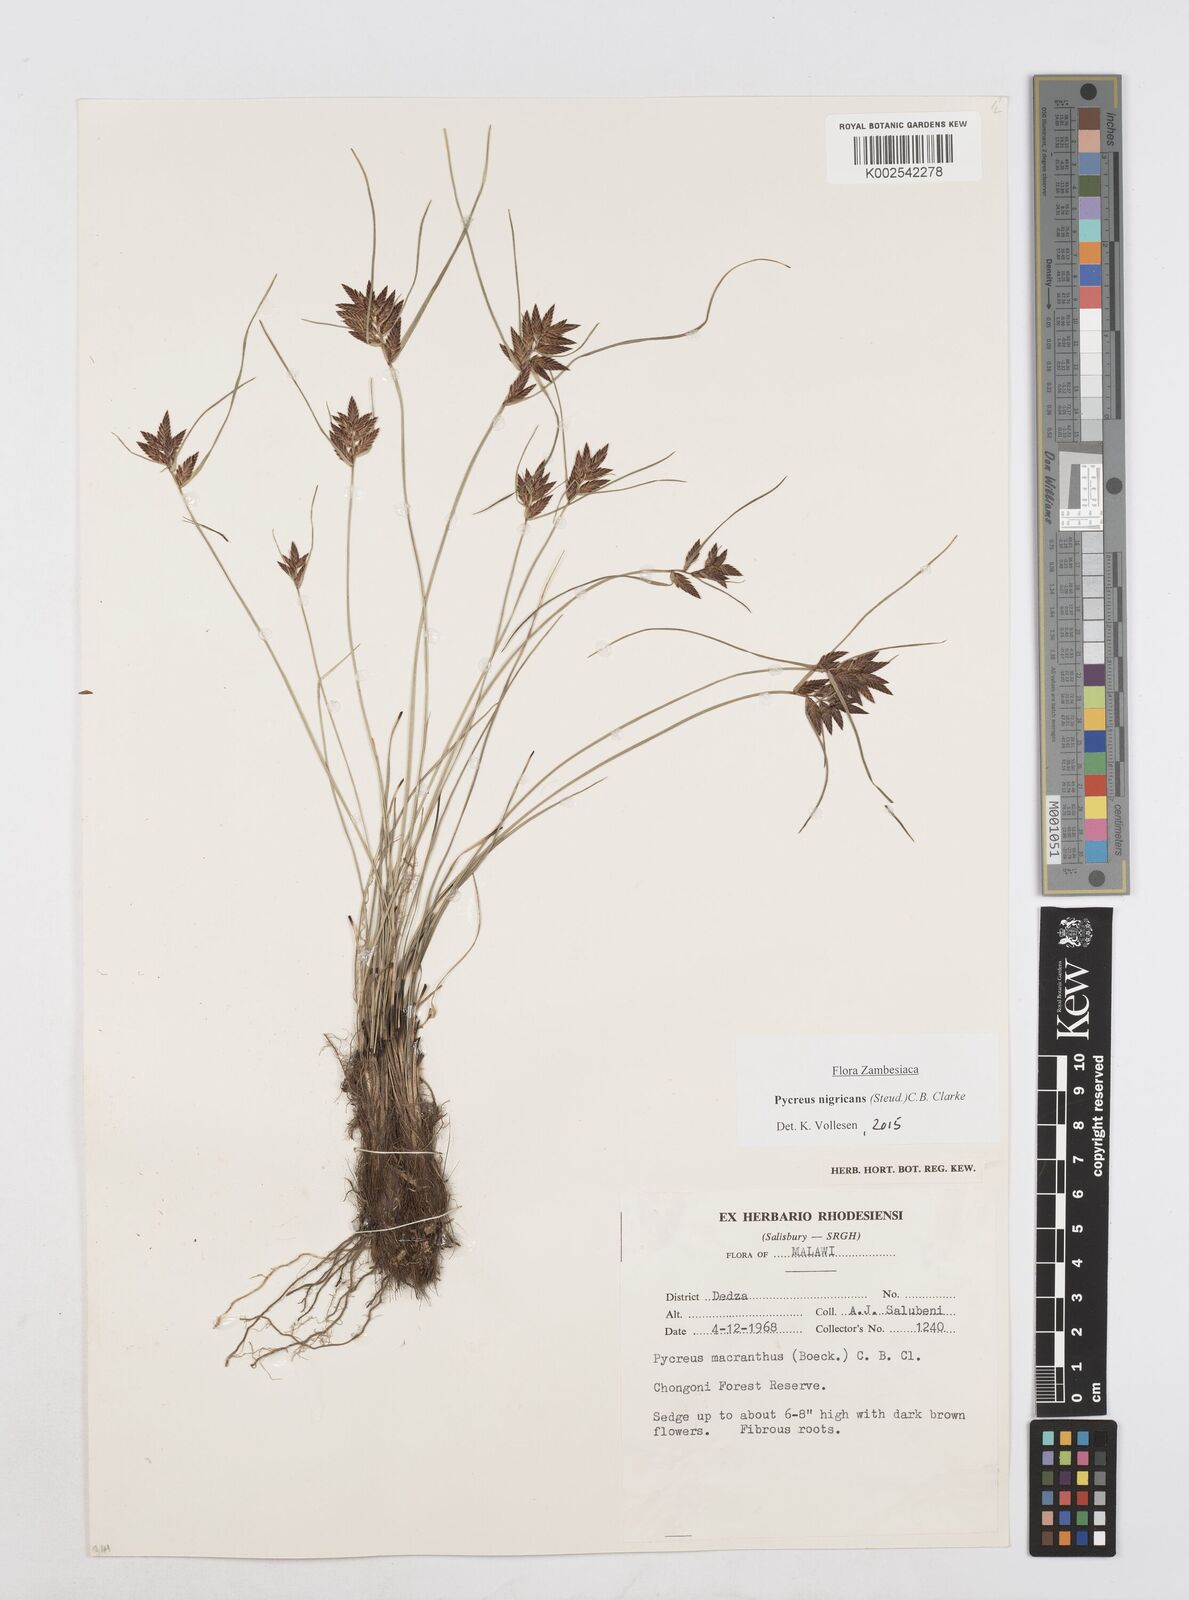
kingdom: Plantae
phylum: Tracheophyta
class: Liliopsida
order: Poales
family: Cyperaceae
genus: Cyperus
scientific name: Cyperus nigricans
